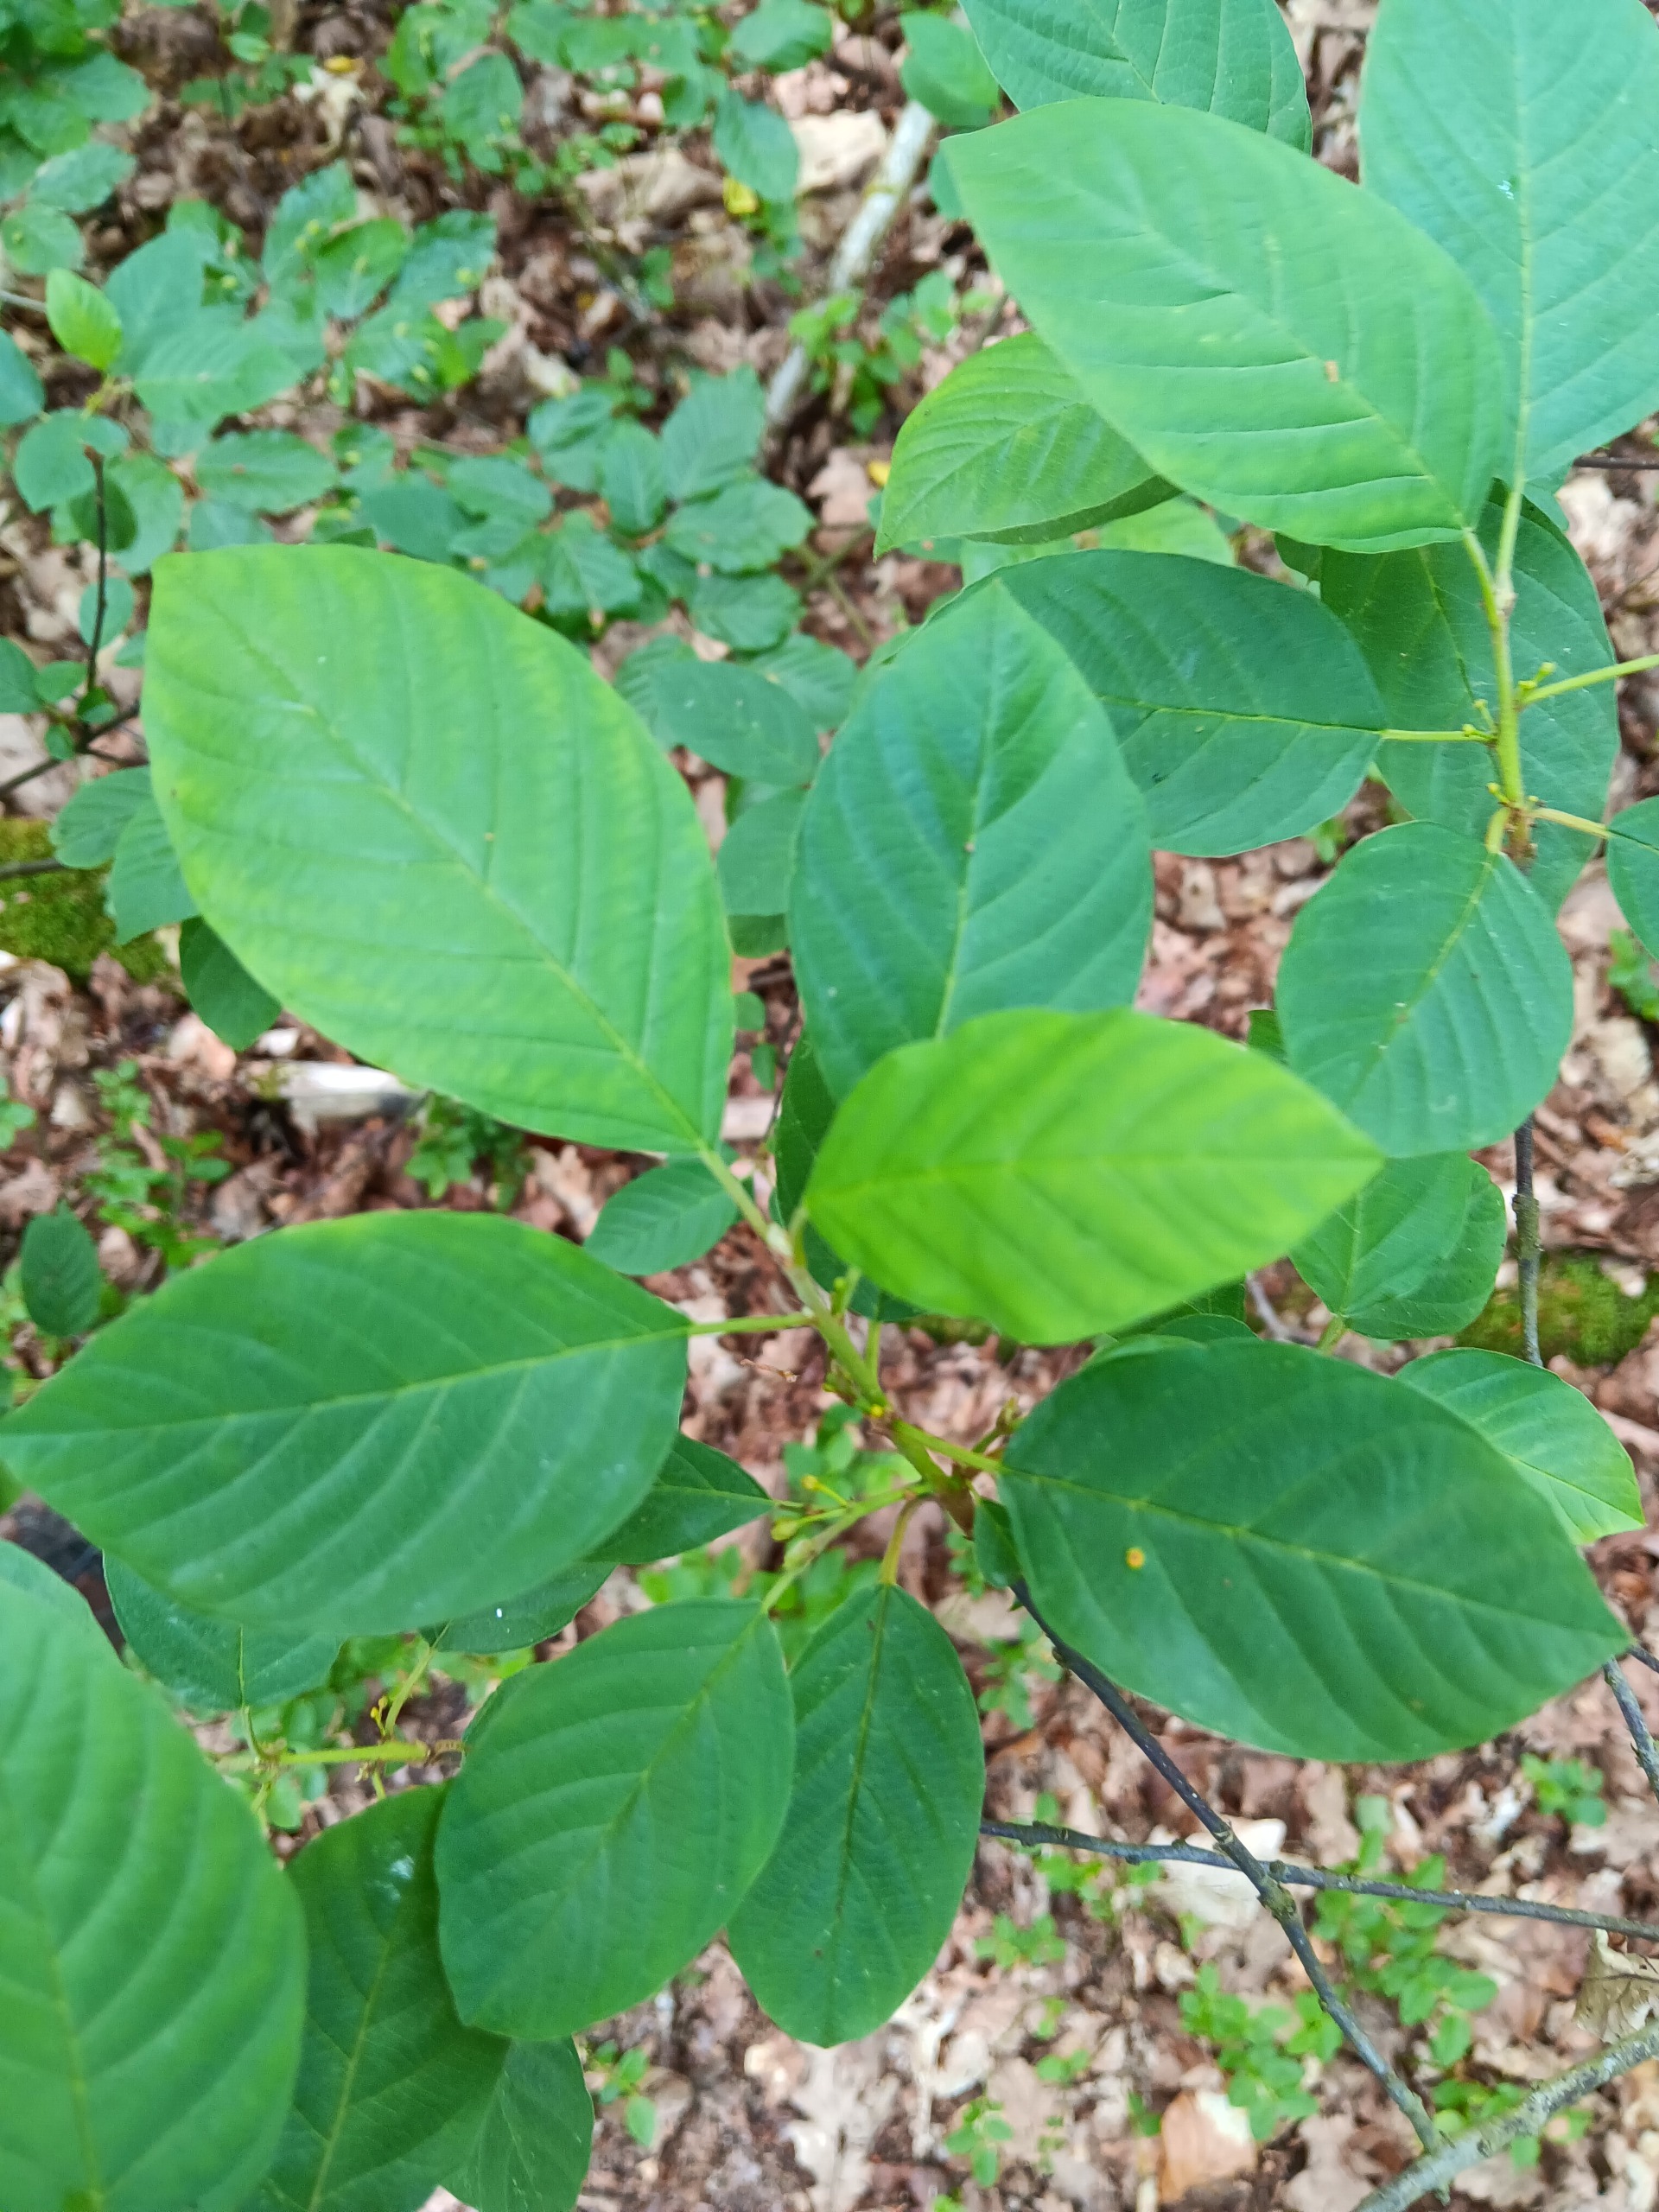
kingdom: Plantae
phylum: Tracheophyta
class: Magnoliopsida
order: Rosales
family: Rhamnaceae
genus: Frangula
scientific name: Frangula alnus
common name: Tørst
